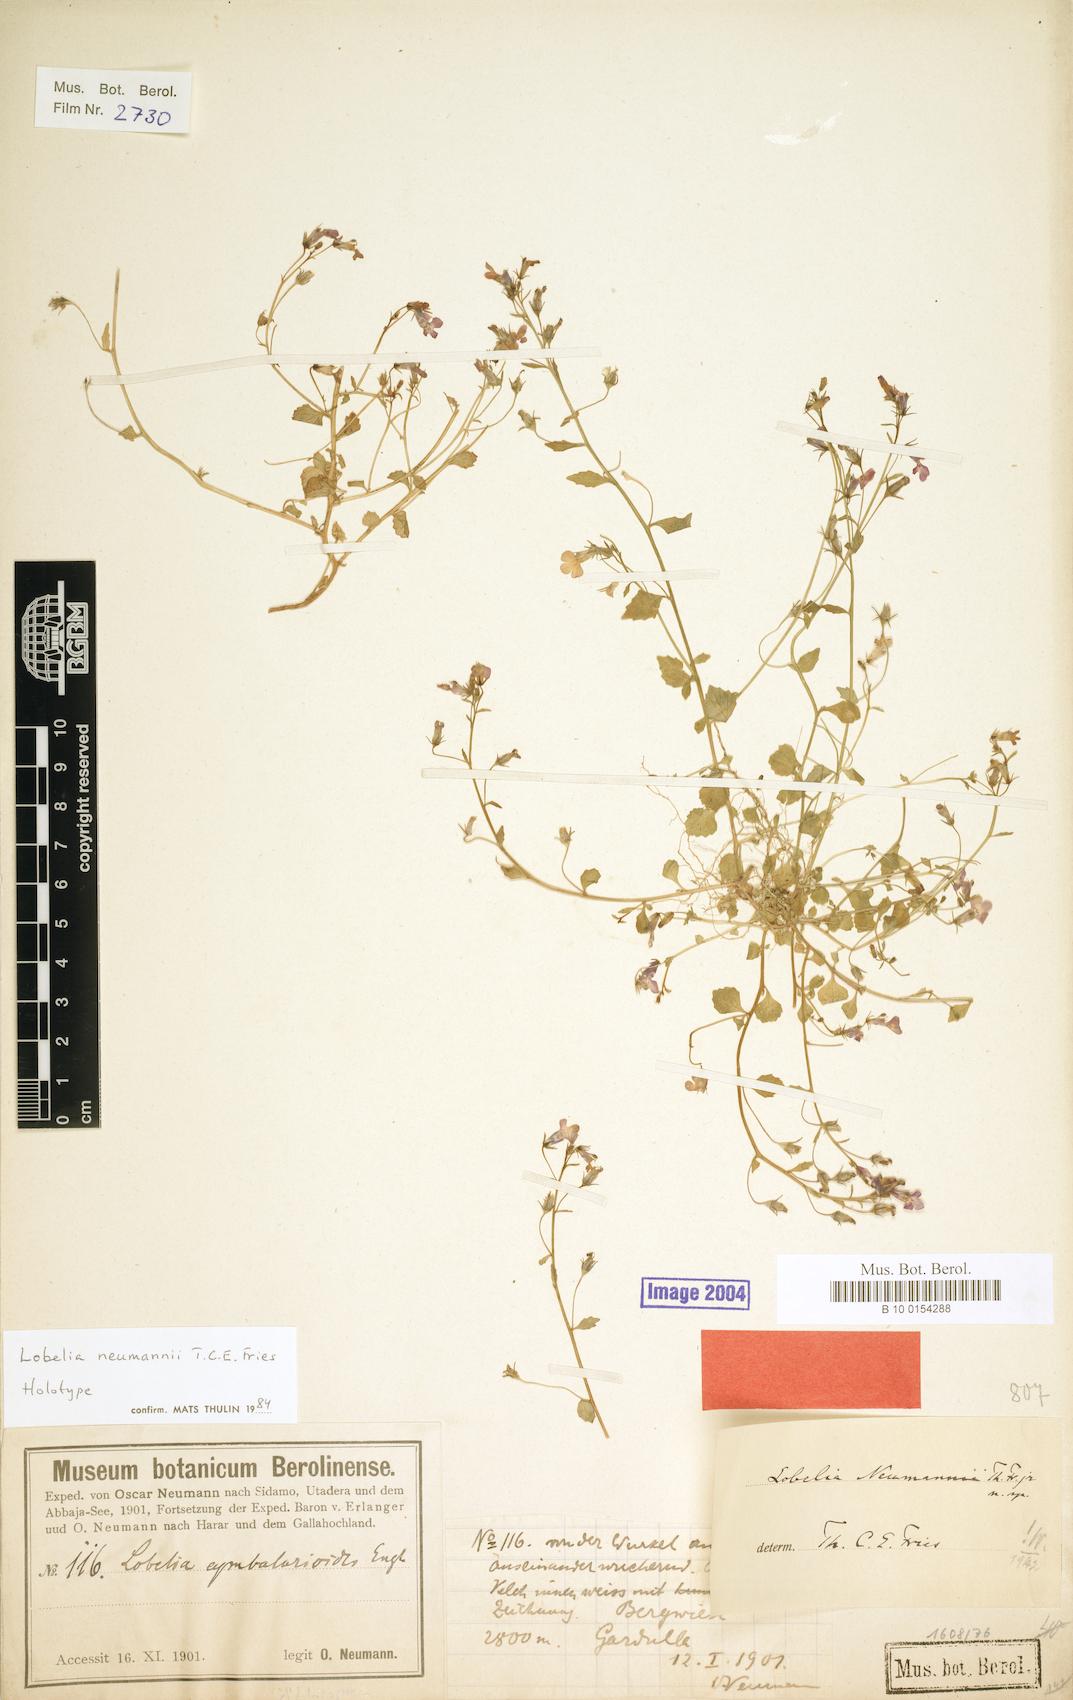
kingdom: Plantae
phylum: Tracheophyta
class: Magnoliopsida
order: Asterales
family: Campanulaceae
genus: Lobelia
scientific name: Lobelia neumannii
